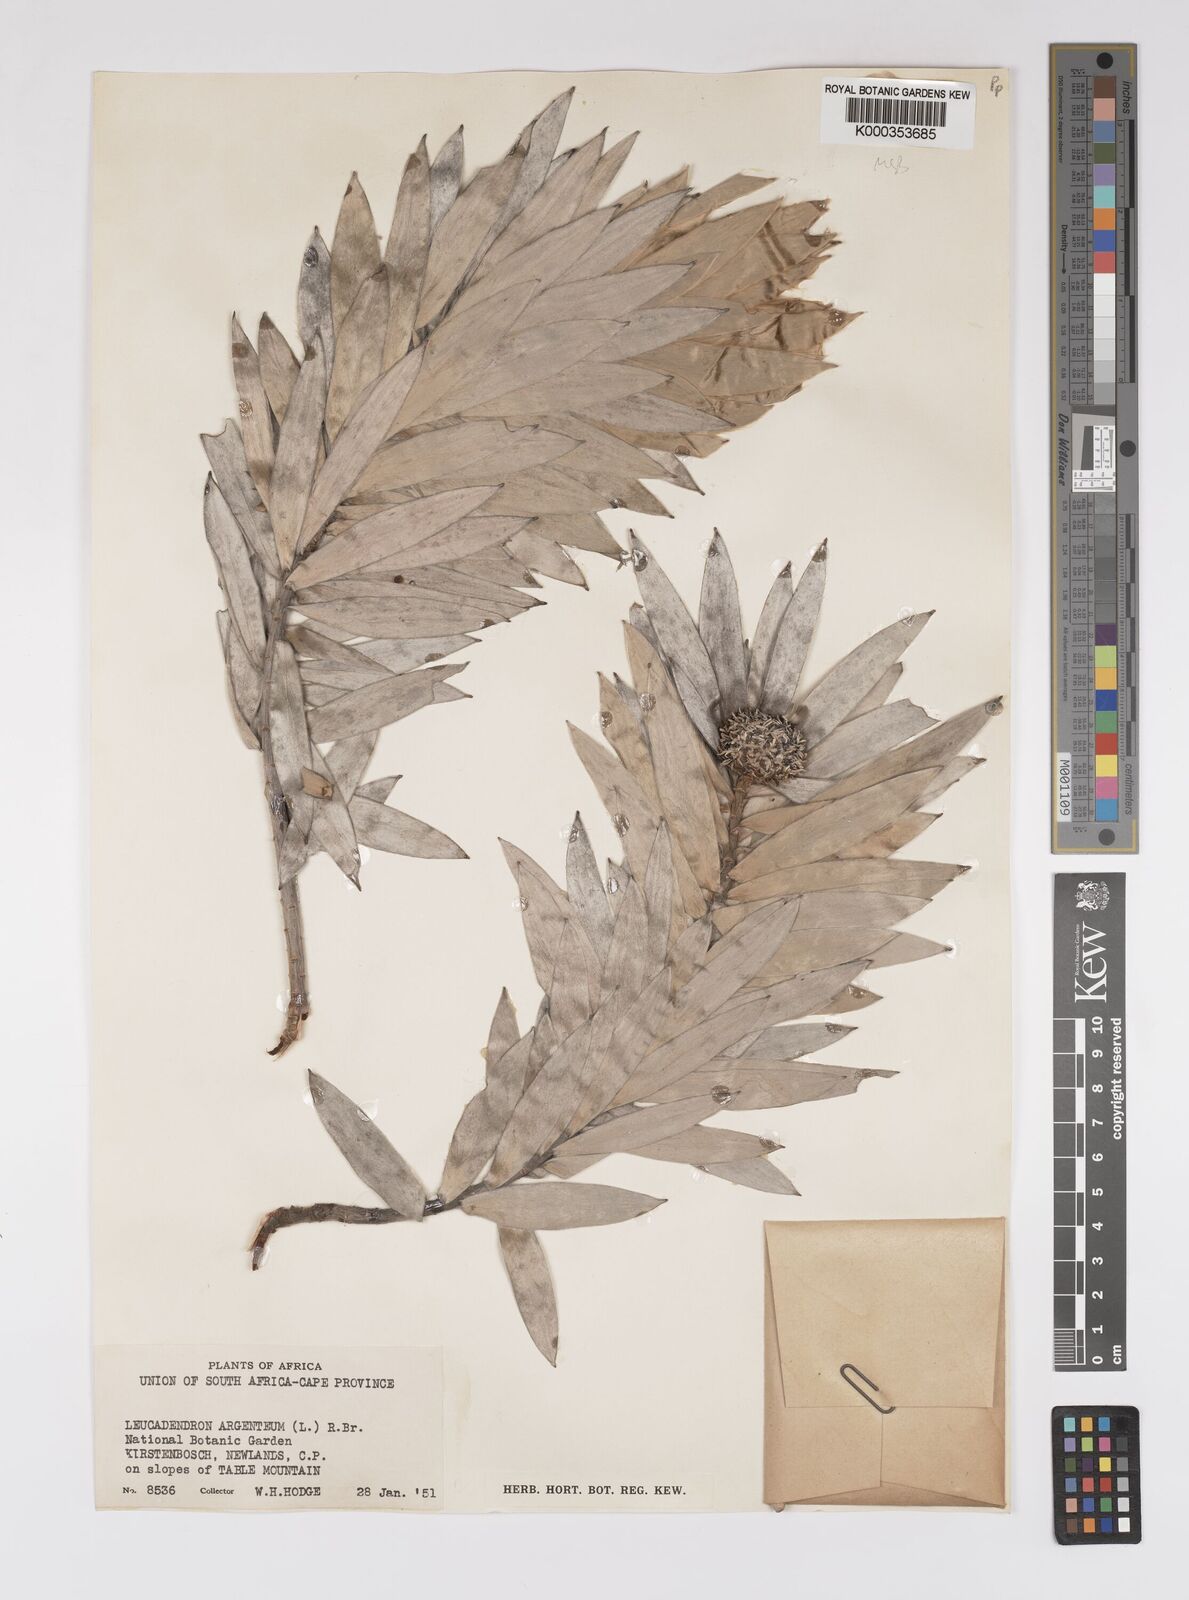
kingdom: Plantae
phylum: Tracheophyta
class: Magnoliopsida
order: Proteales
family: Proteaceae
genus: Leucadendron
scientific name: Leucadendron argenteum
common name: Cape silver tree
